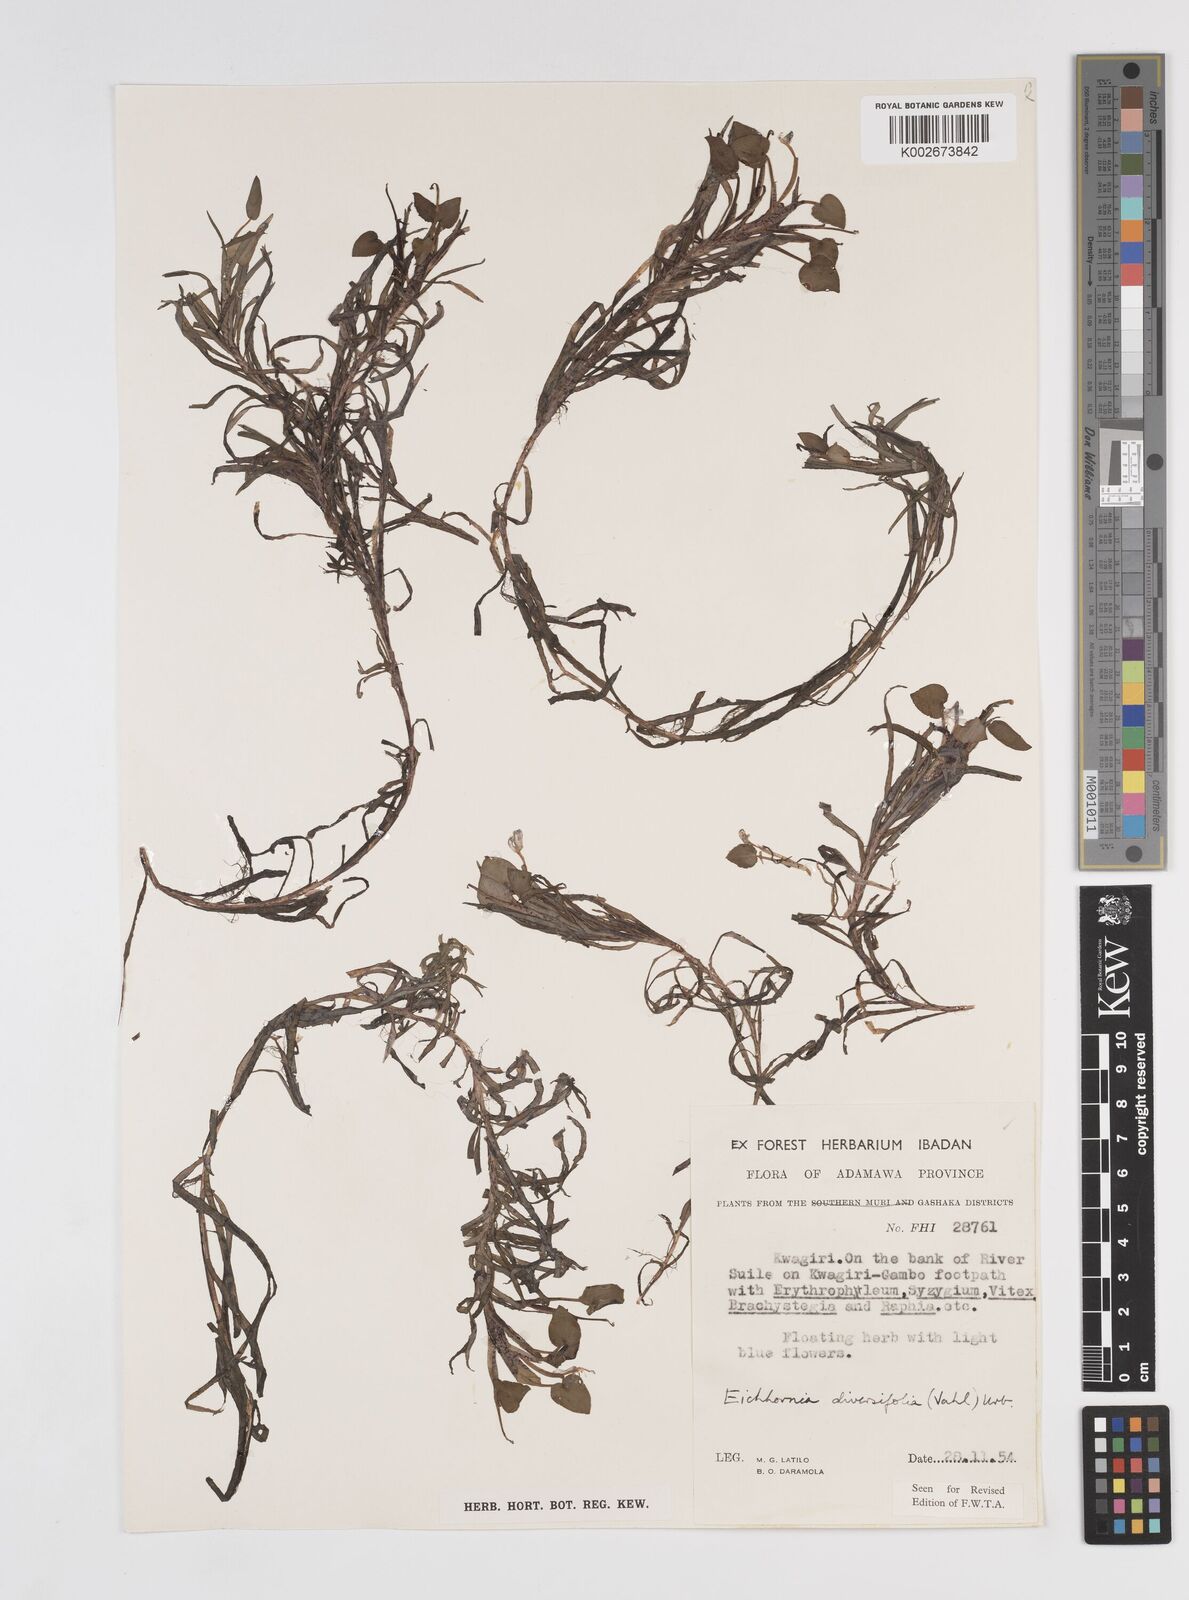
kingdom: Plantae
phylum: Tracheophyta
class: Liliopsida
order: Commelinales
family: Pontederiaceae
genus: Pontederia
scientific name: Pontederia diversifolia
